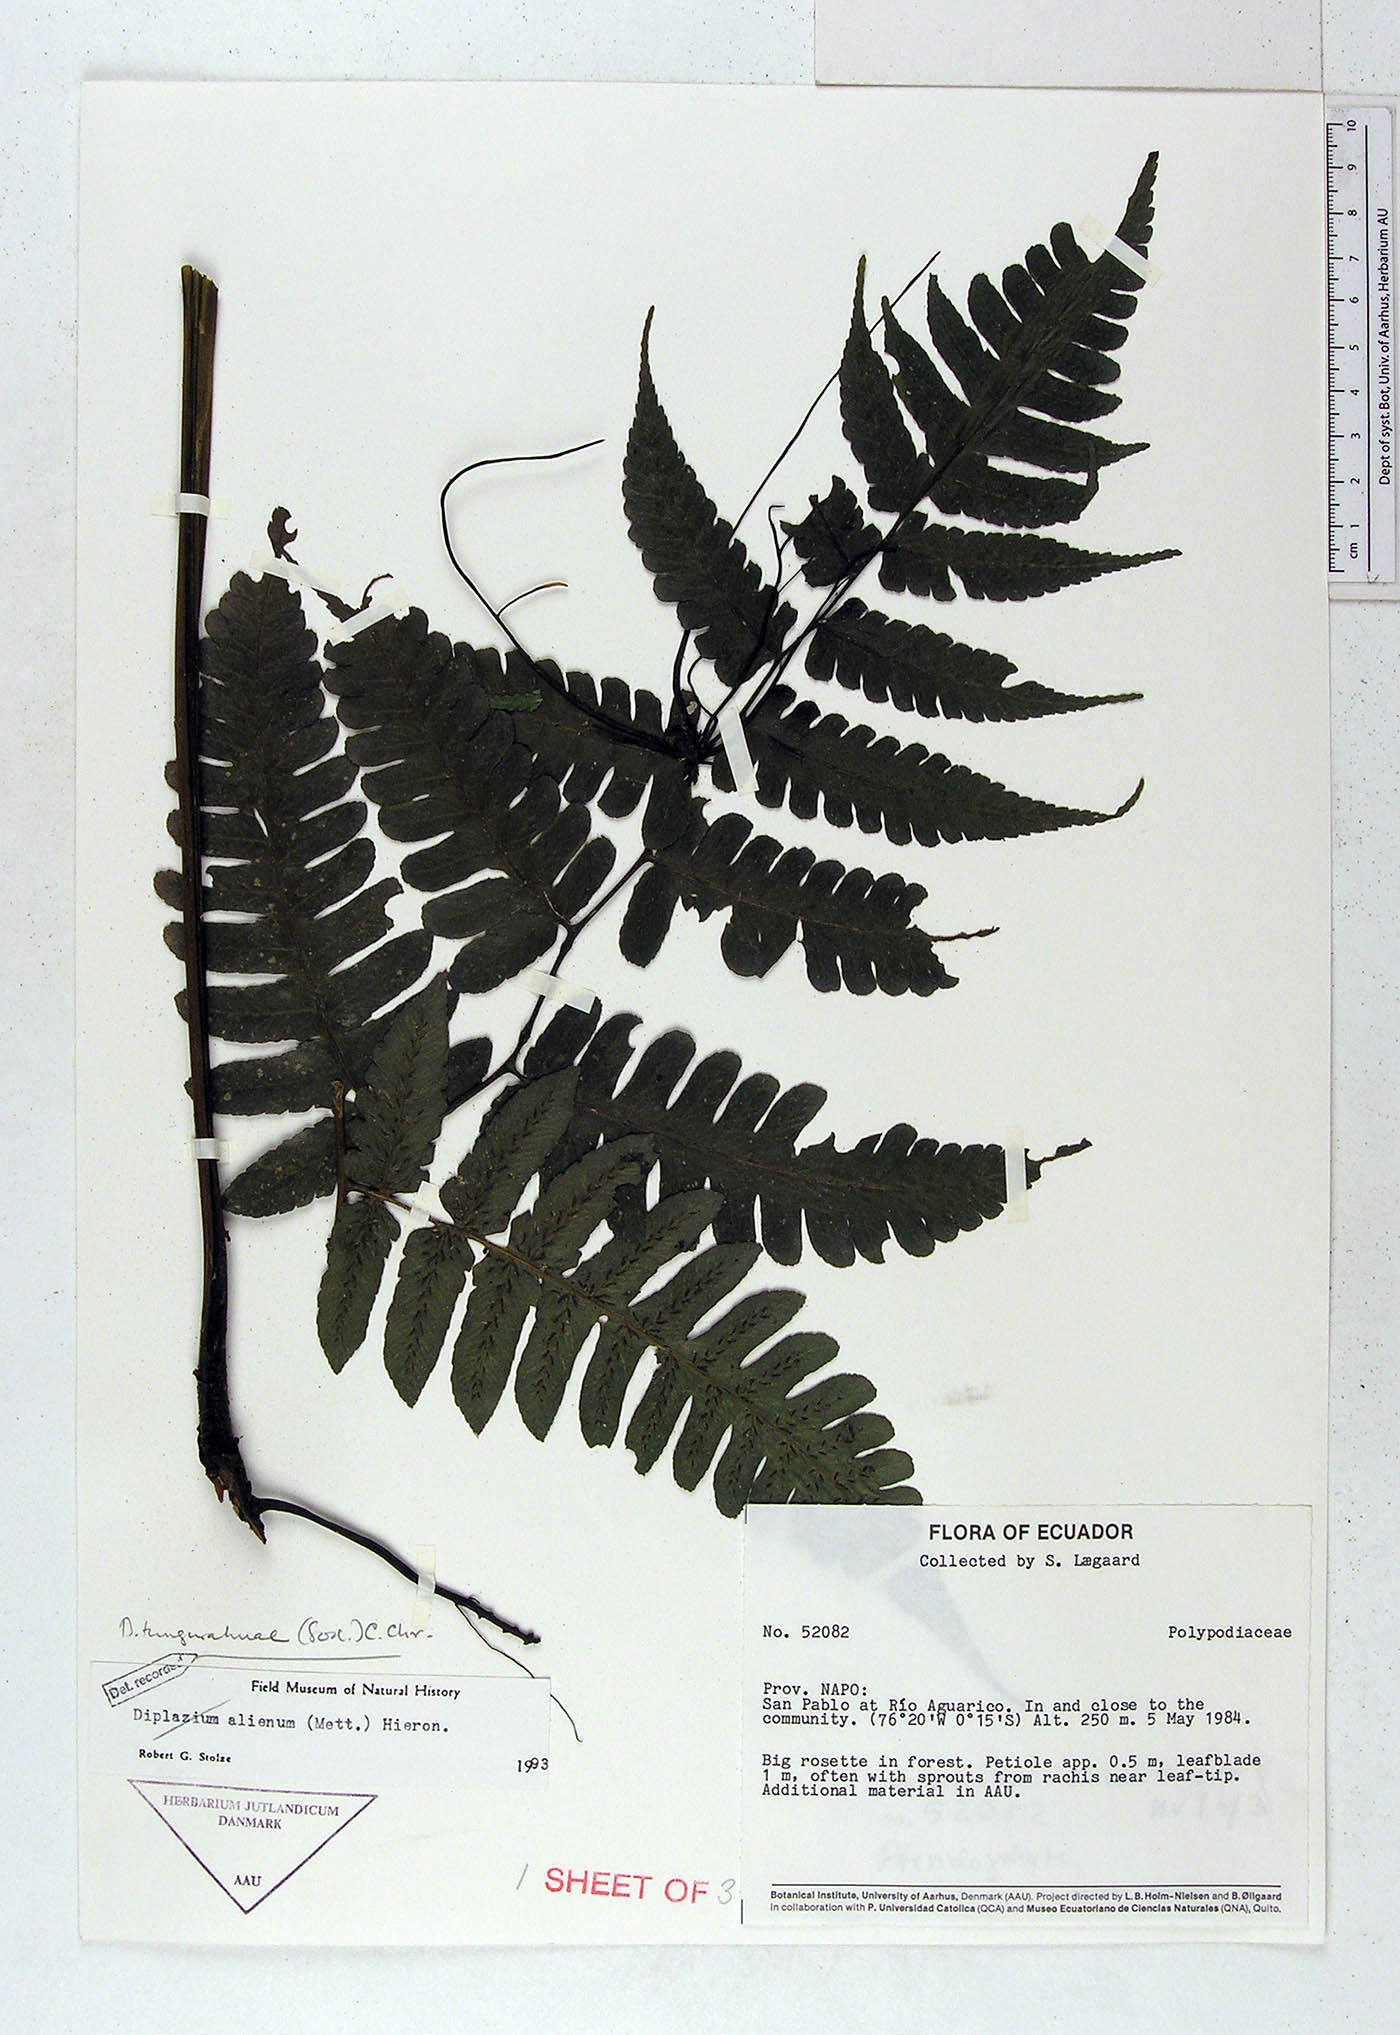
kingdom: Plantae
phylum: Tracheophyta
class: Polypodiopsida
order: Polypodiales
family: Athyriaceae
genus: Diplazium
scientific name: Diplazium tungurahuae
